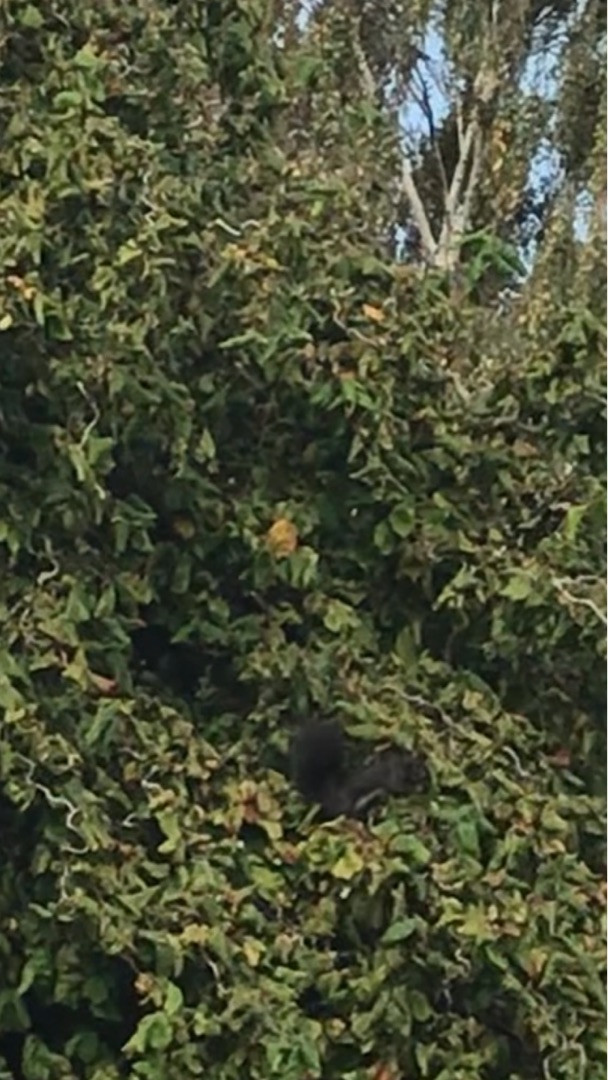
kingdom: Animalia
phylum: Chordata
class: Mammalia
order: Rodentia
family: Sciuridae
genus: Sciurus
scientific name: Sciurus vulgaris
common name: Egern
